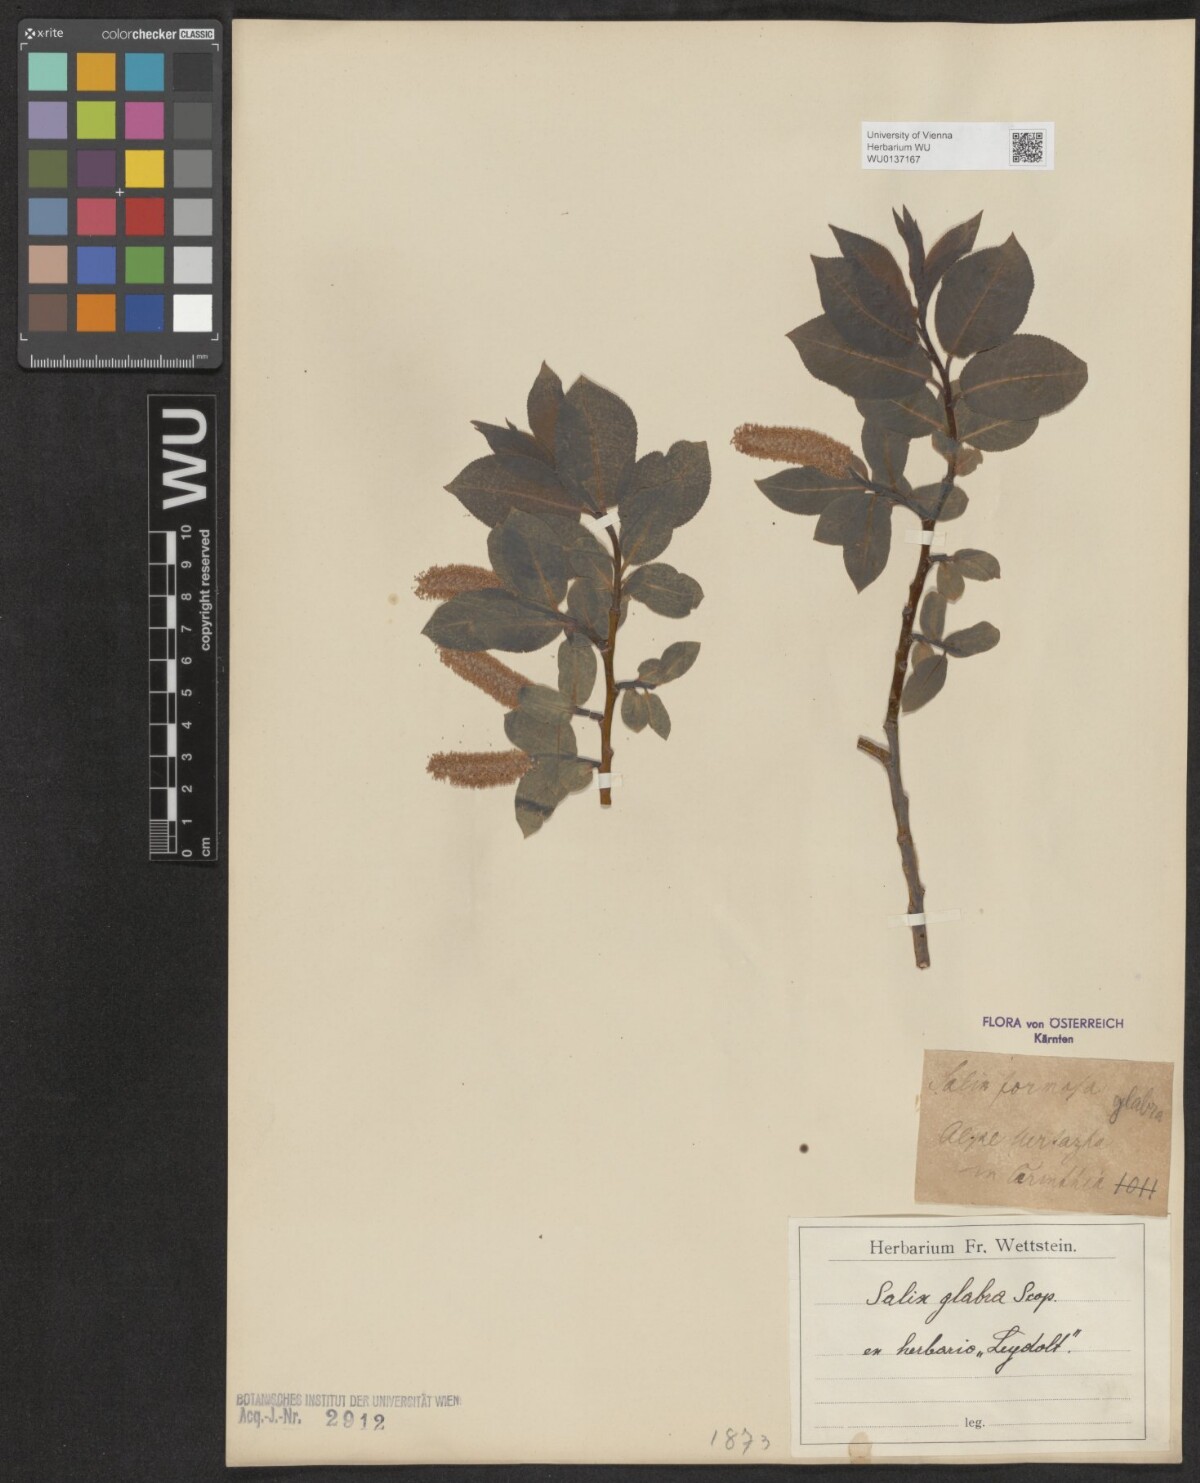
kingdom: Plantae
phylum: Tracheophyta
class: Magnoliopsida
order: Malpighiales
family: Salicaceae
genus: Salix
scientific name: Salix glabra
